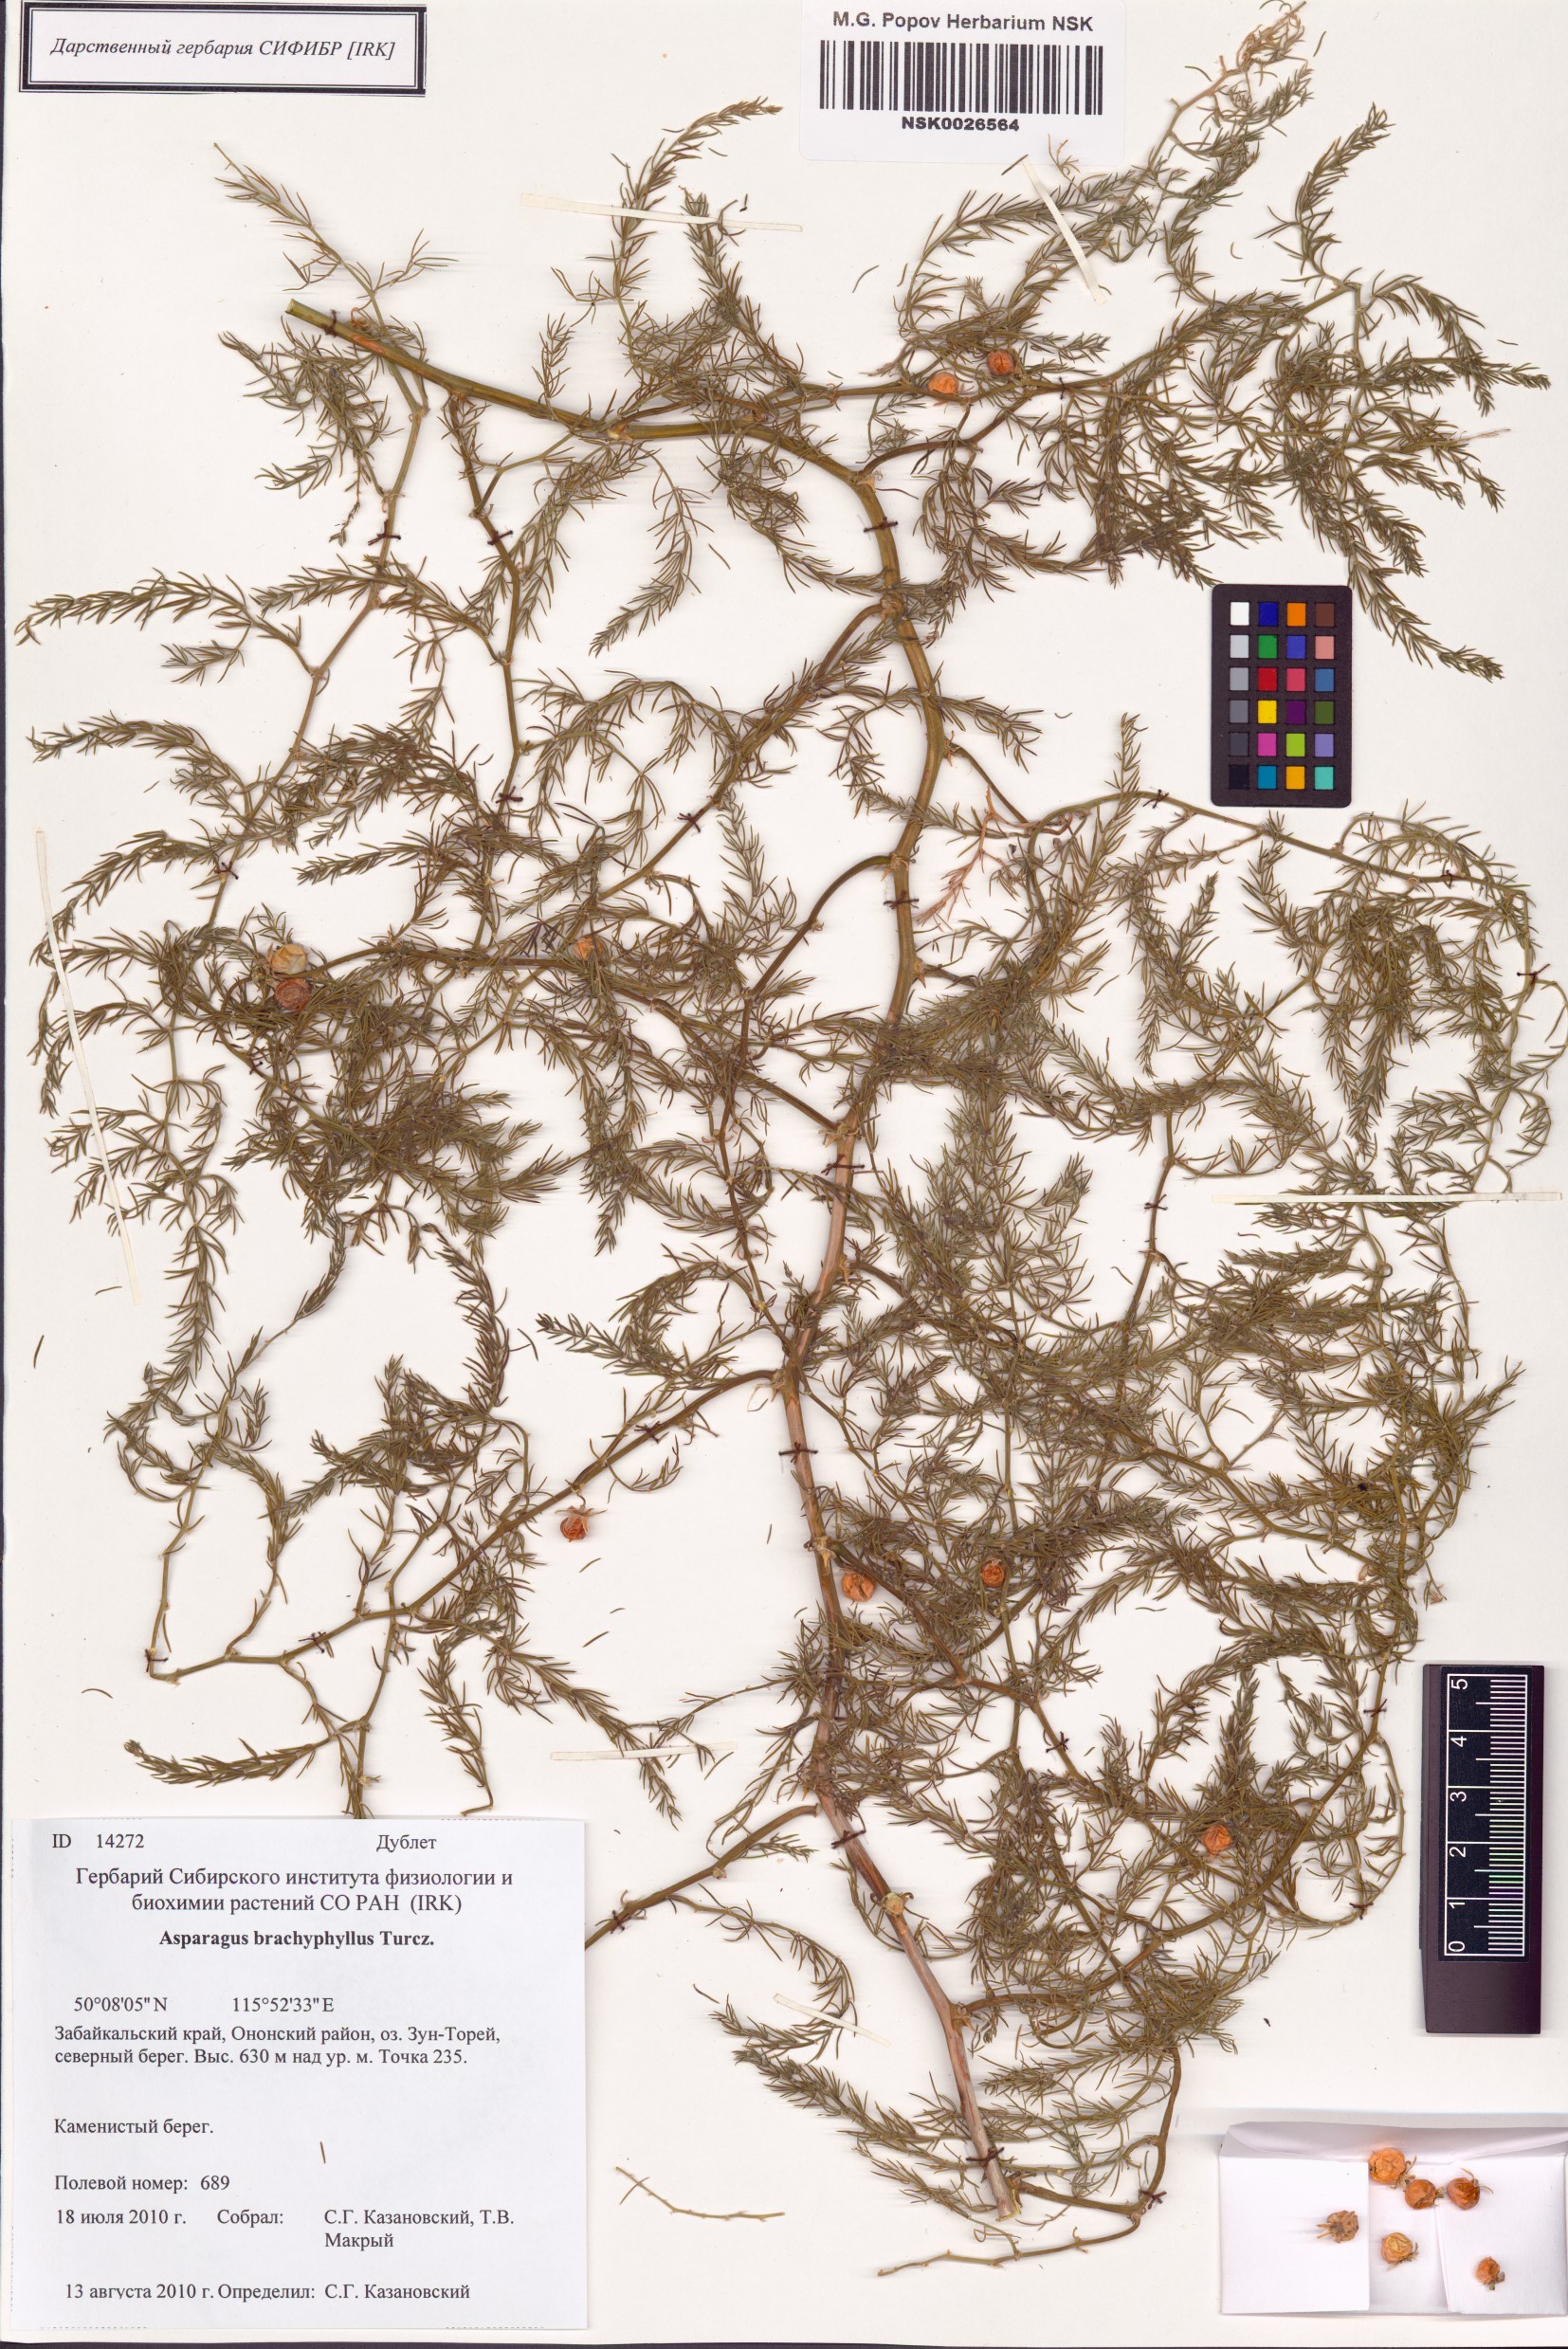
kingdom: Plantae
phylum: Tracheophyta
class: Liliopsida
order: Asparagales
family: Asparagaceae
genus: Asparagus
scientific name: Asparagus brachyphyllus
